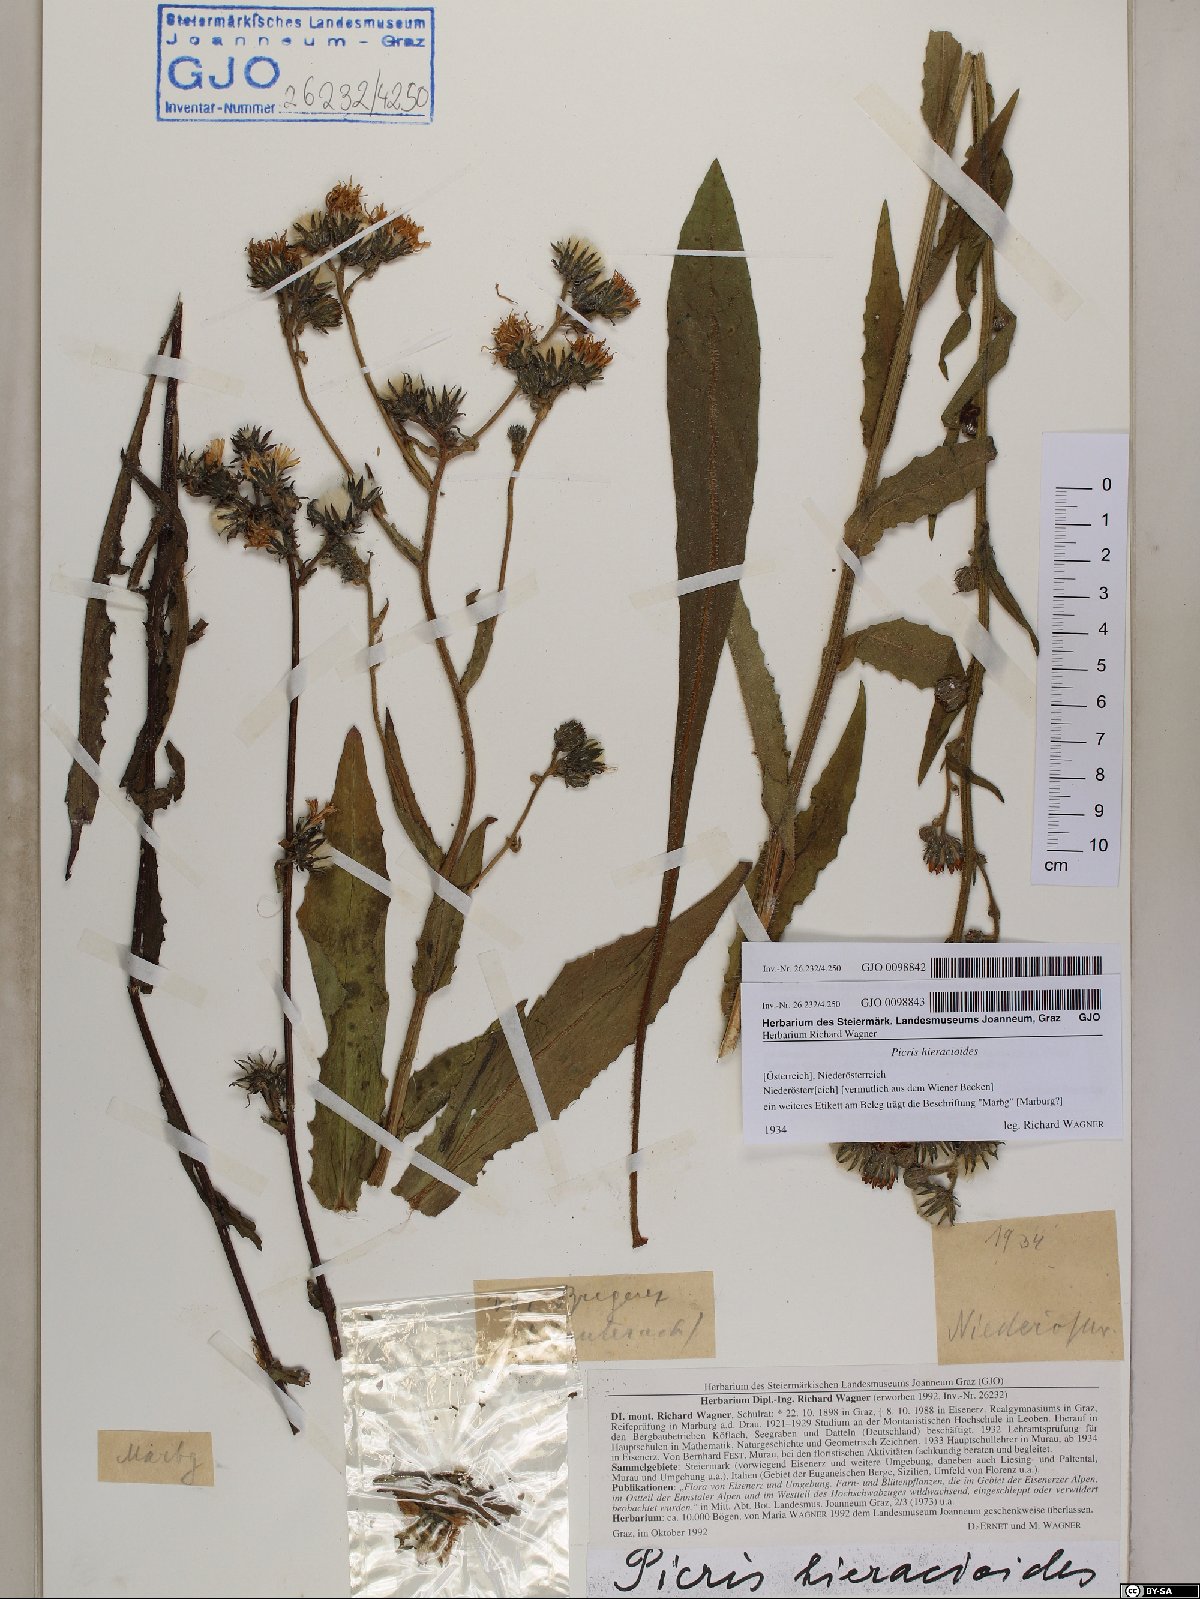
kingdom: Plantae
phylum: Tracheophyta
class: Magnoliopsida
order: Asterales
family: Asteraceae
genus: Picris
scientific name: Picris hieracioides
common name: Hawkweed oxtongue
